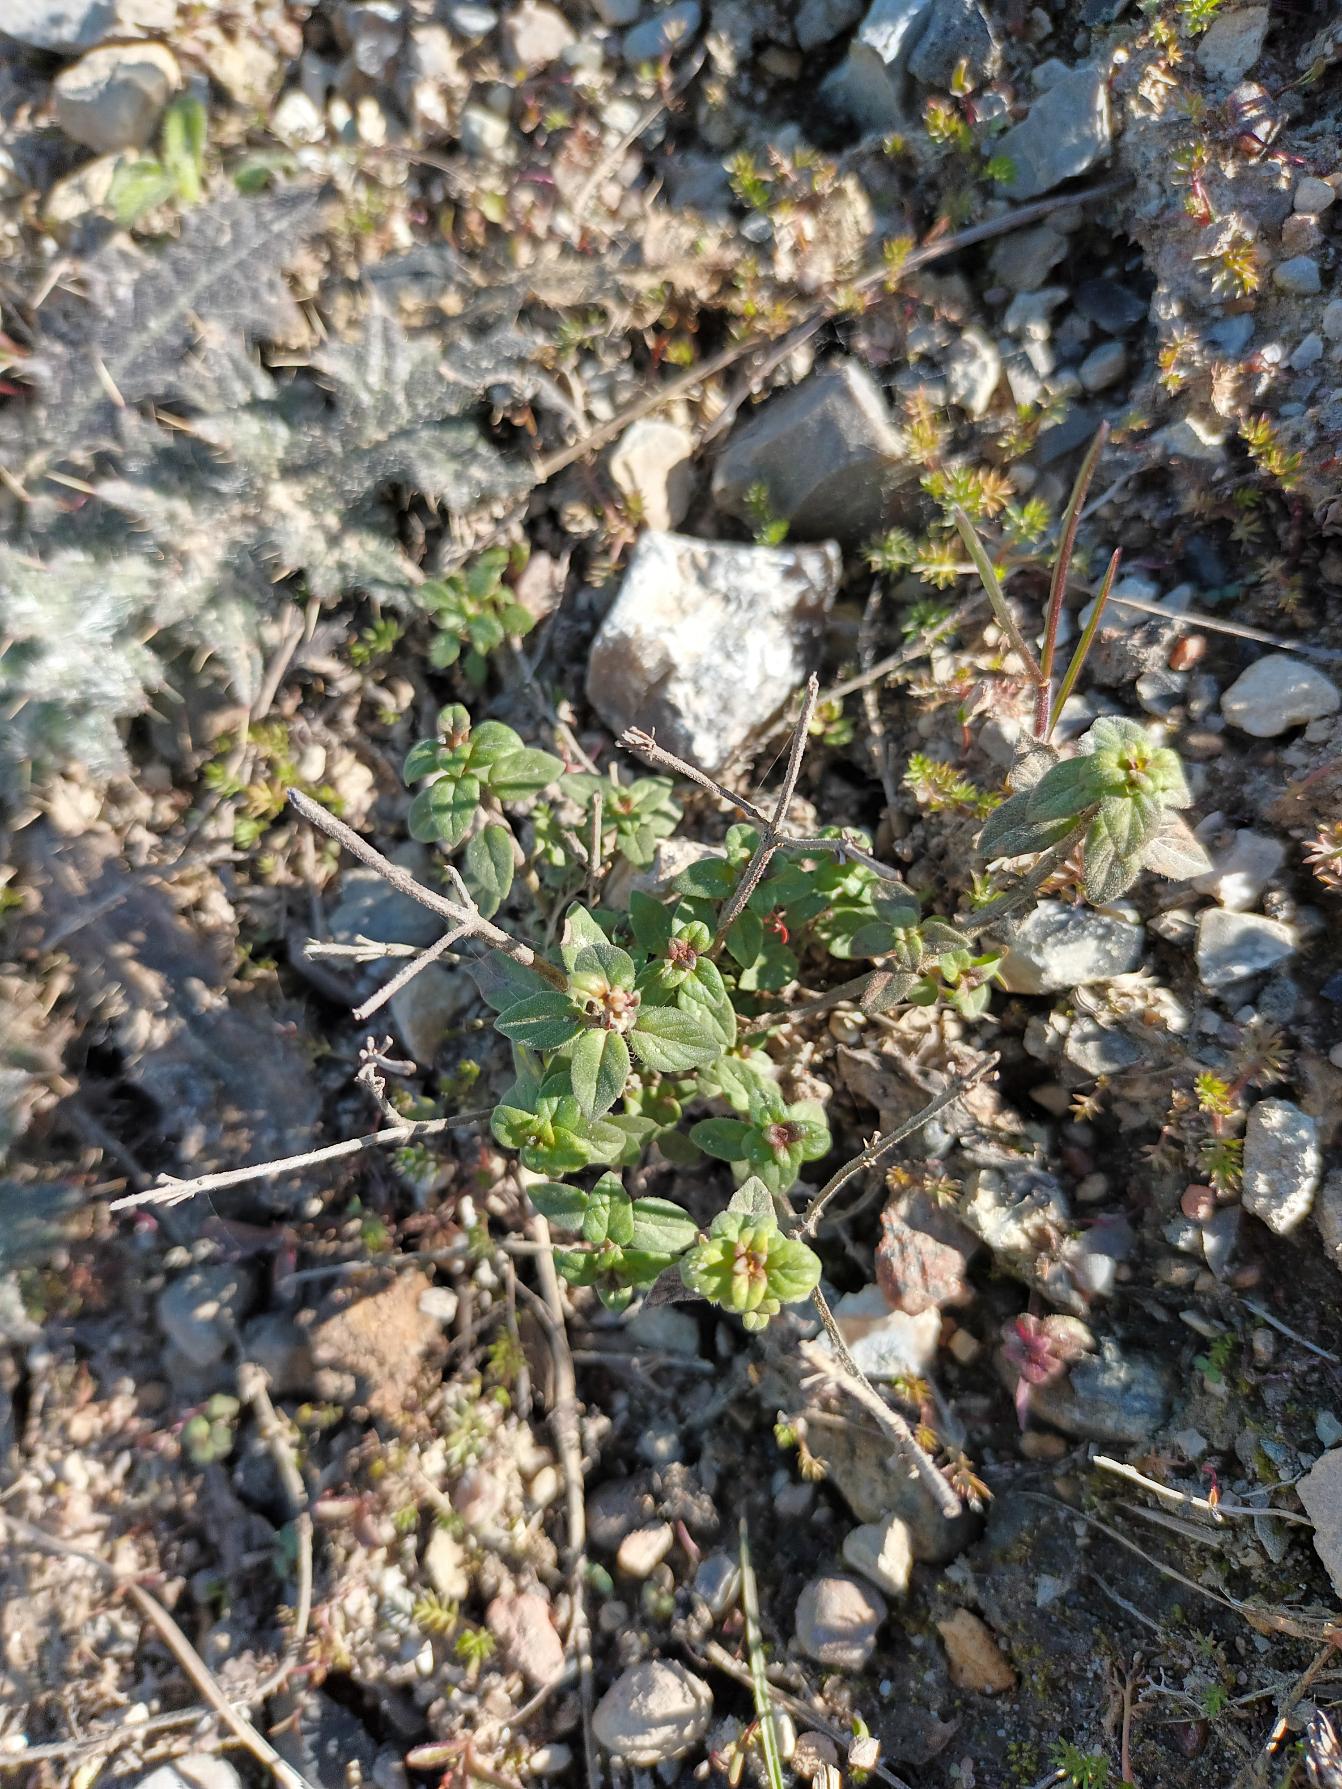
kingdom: Plantae
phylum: Tracheophyta
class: Magnoliopsida
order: Lamiales
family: Lamiaceae
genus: Clinopodium
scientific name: Clinopodium acinos
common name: Voldtimian
